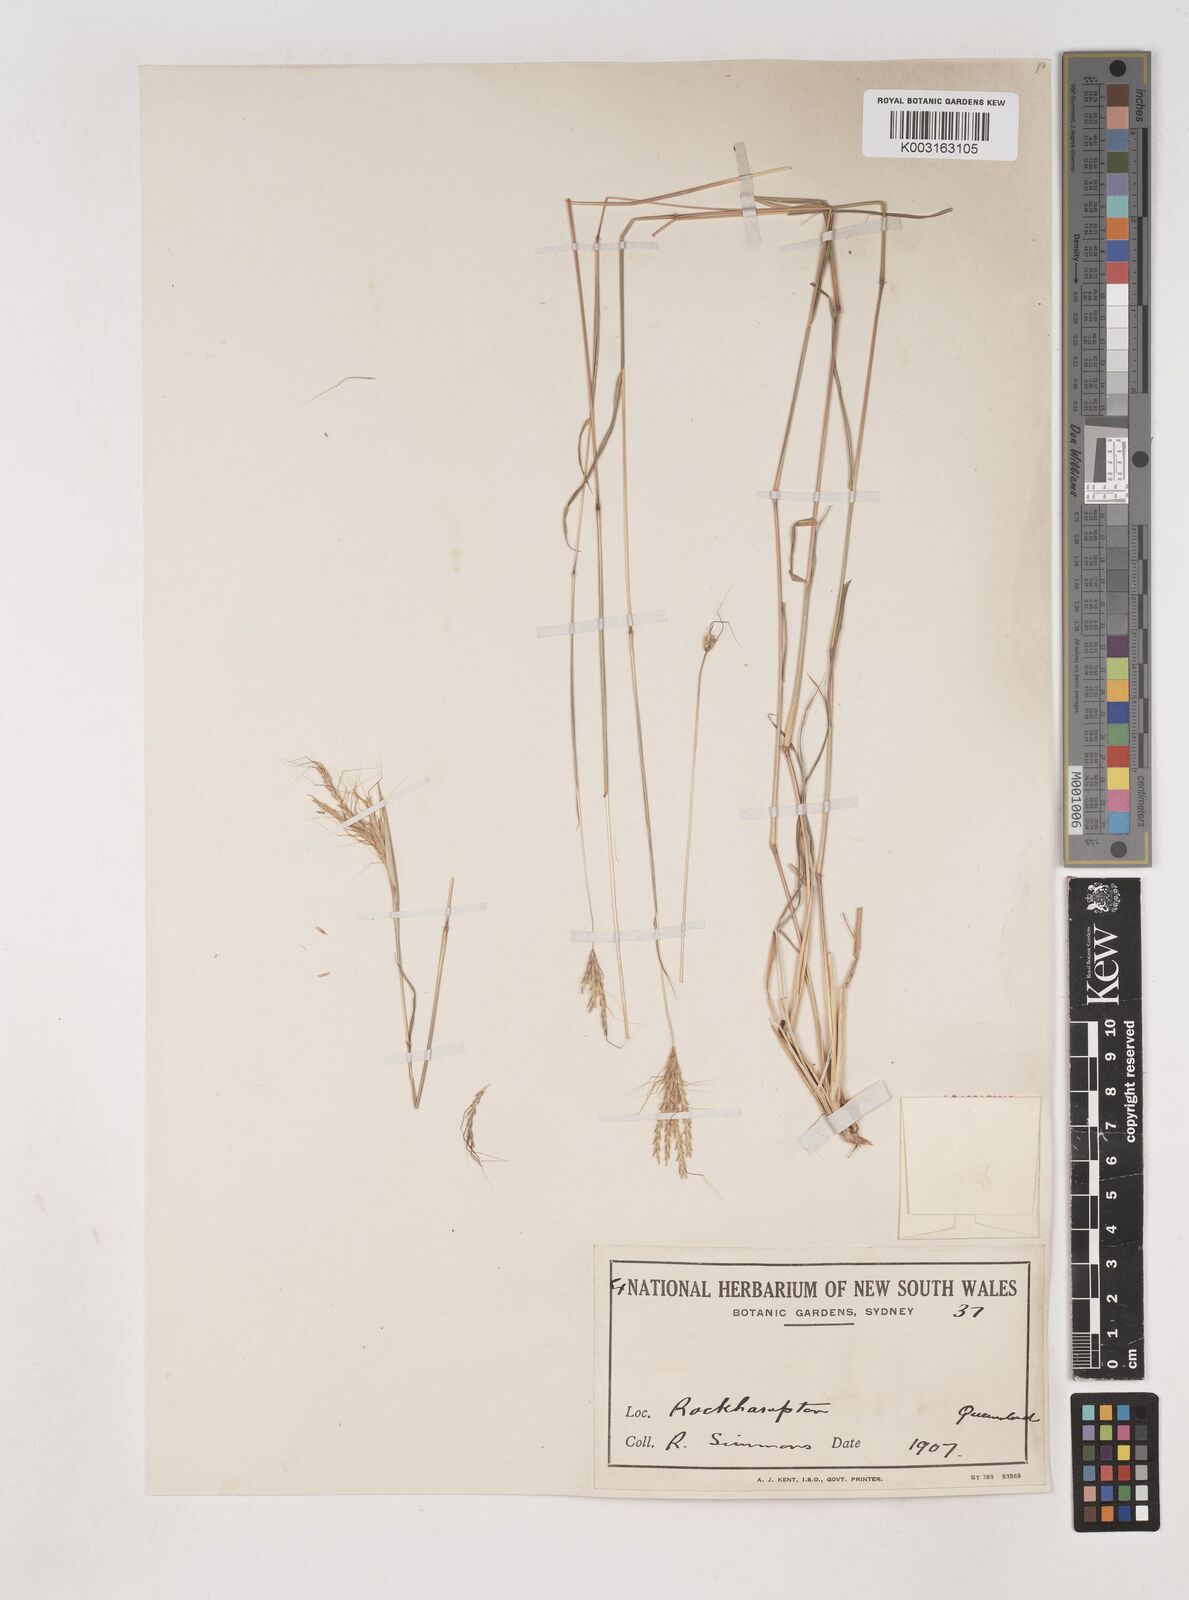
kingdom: Plantae
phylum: Tracheophyta
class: Liliopsida
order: Poales
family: Poaceae
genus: Dichanthium
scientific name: Dichanthium sericeum
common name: Silky bluestem
